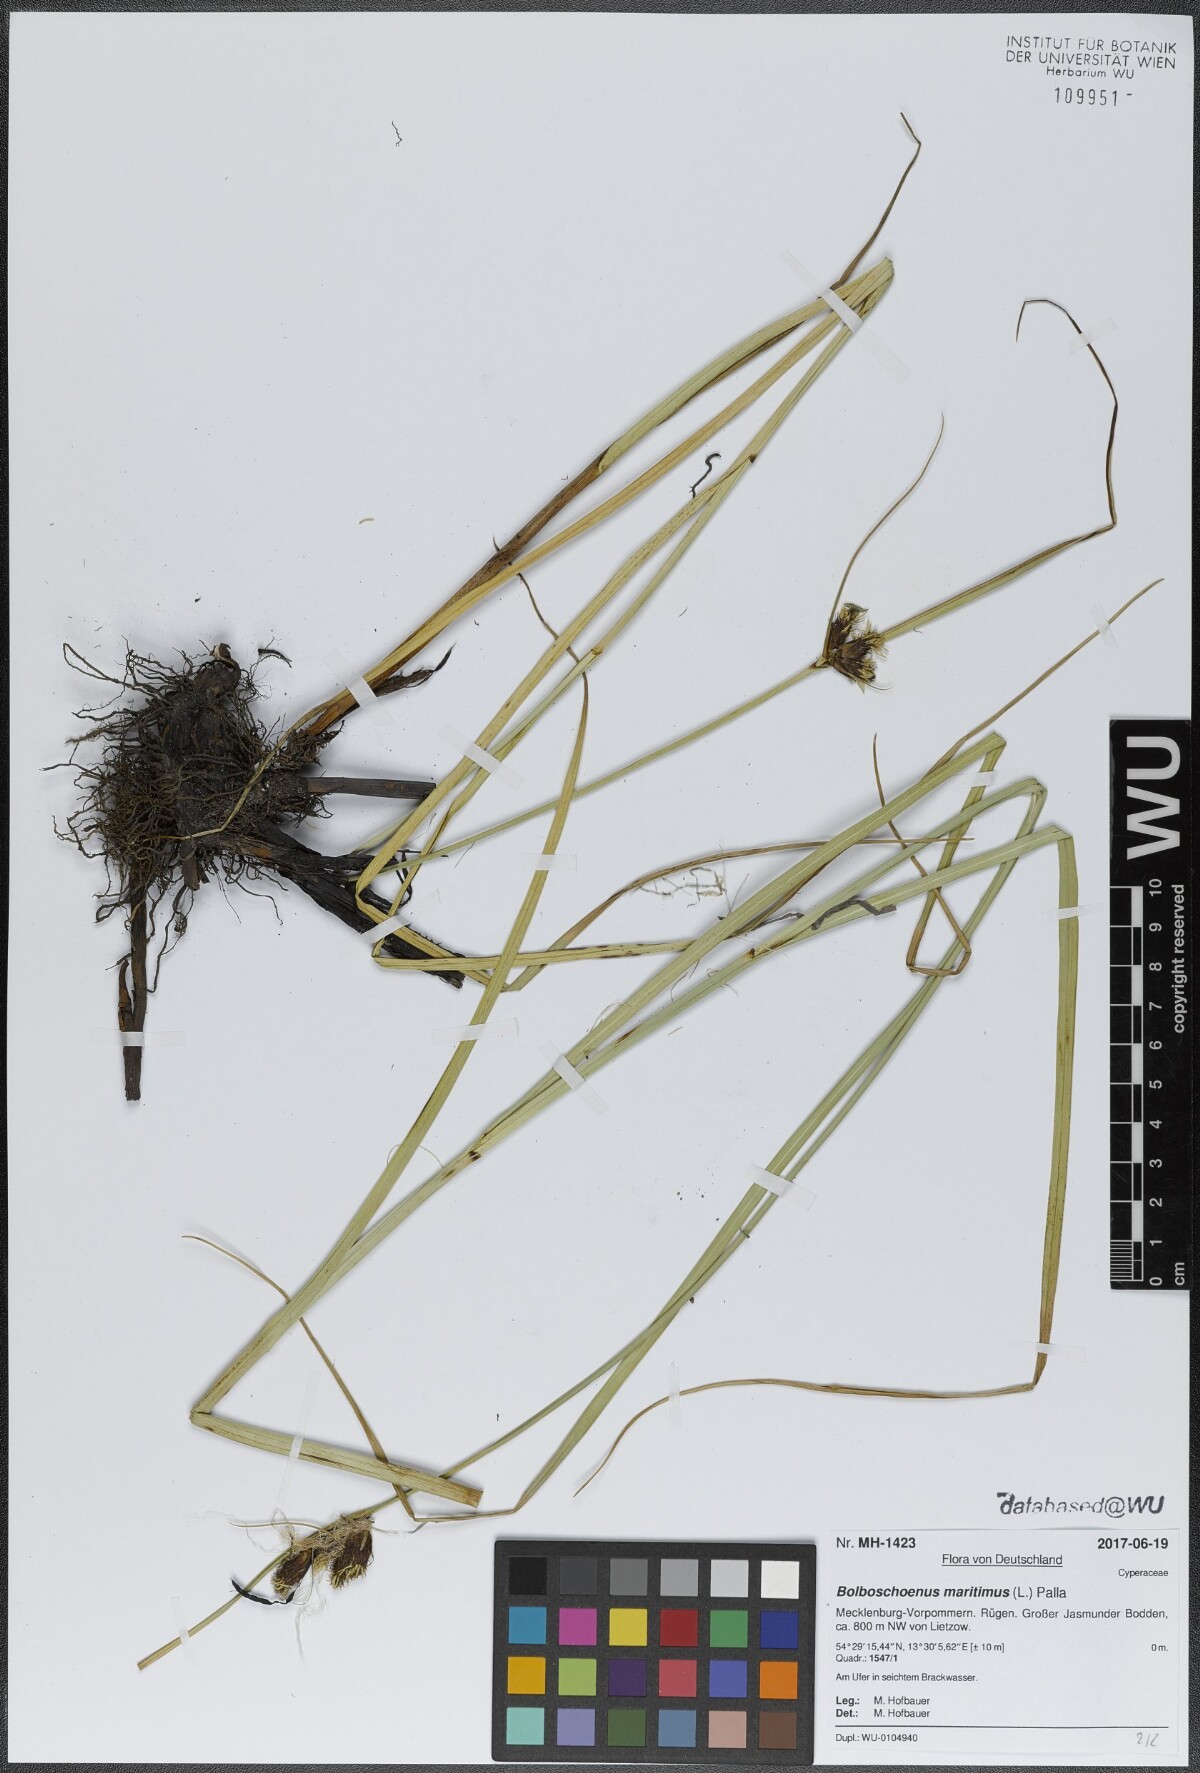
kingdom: Plantae
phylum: Tracheophyta
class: Liliopsida
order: Poales
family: Cyperaceae
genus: Bolboschoenus
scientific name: Bolboschoenus maritimus
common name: Sea club-rush
